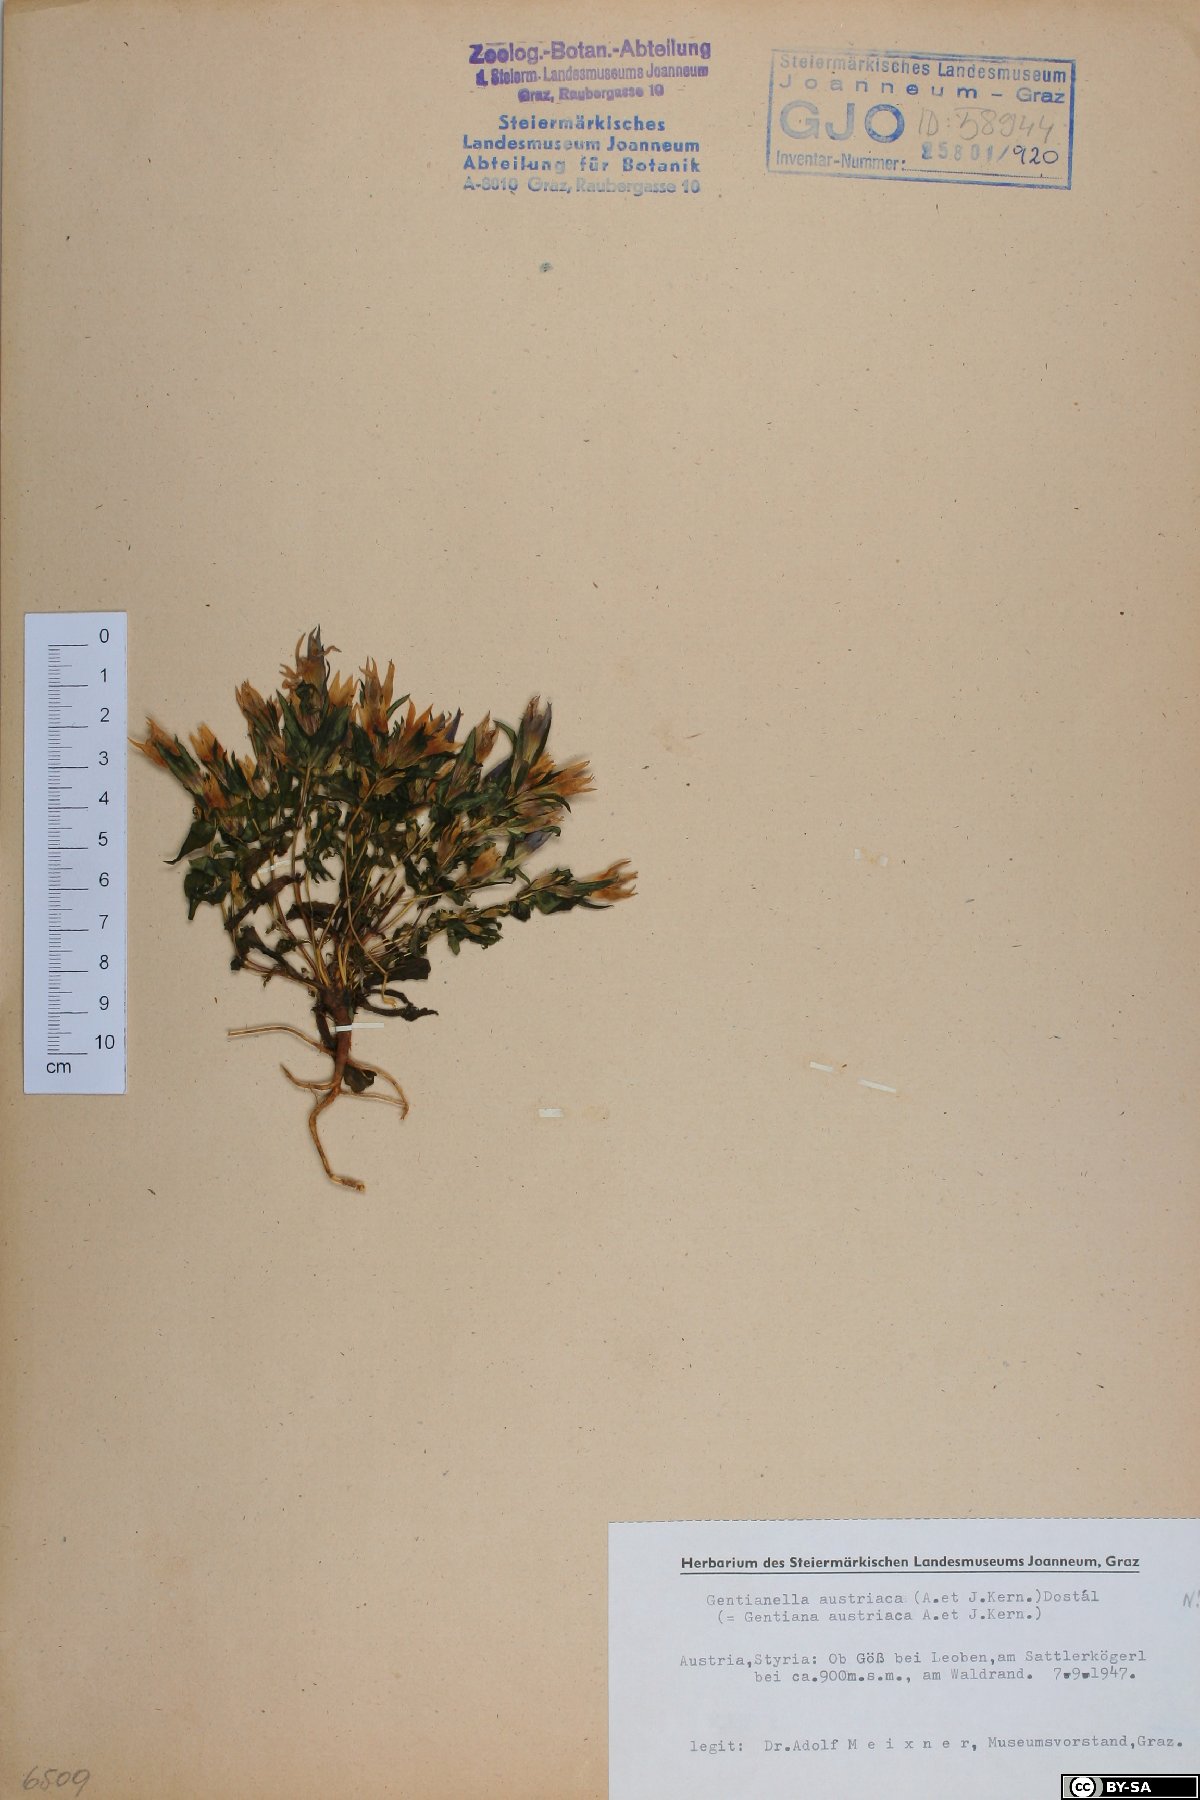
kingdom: Plantae
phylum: Tracheophyta
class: Magnoliopsida
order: Gentianales
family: Gentianaceae
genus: Gentianella
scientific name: Gentianella austriaca
